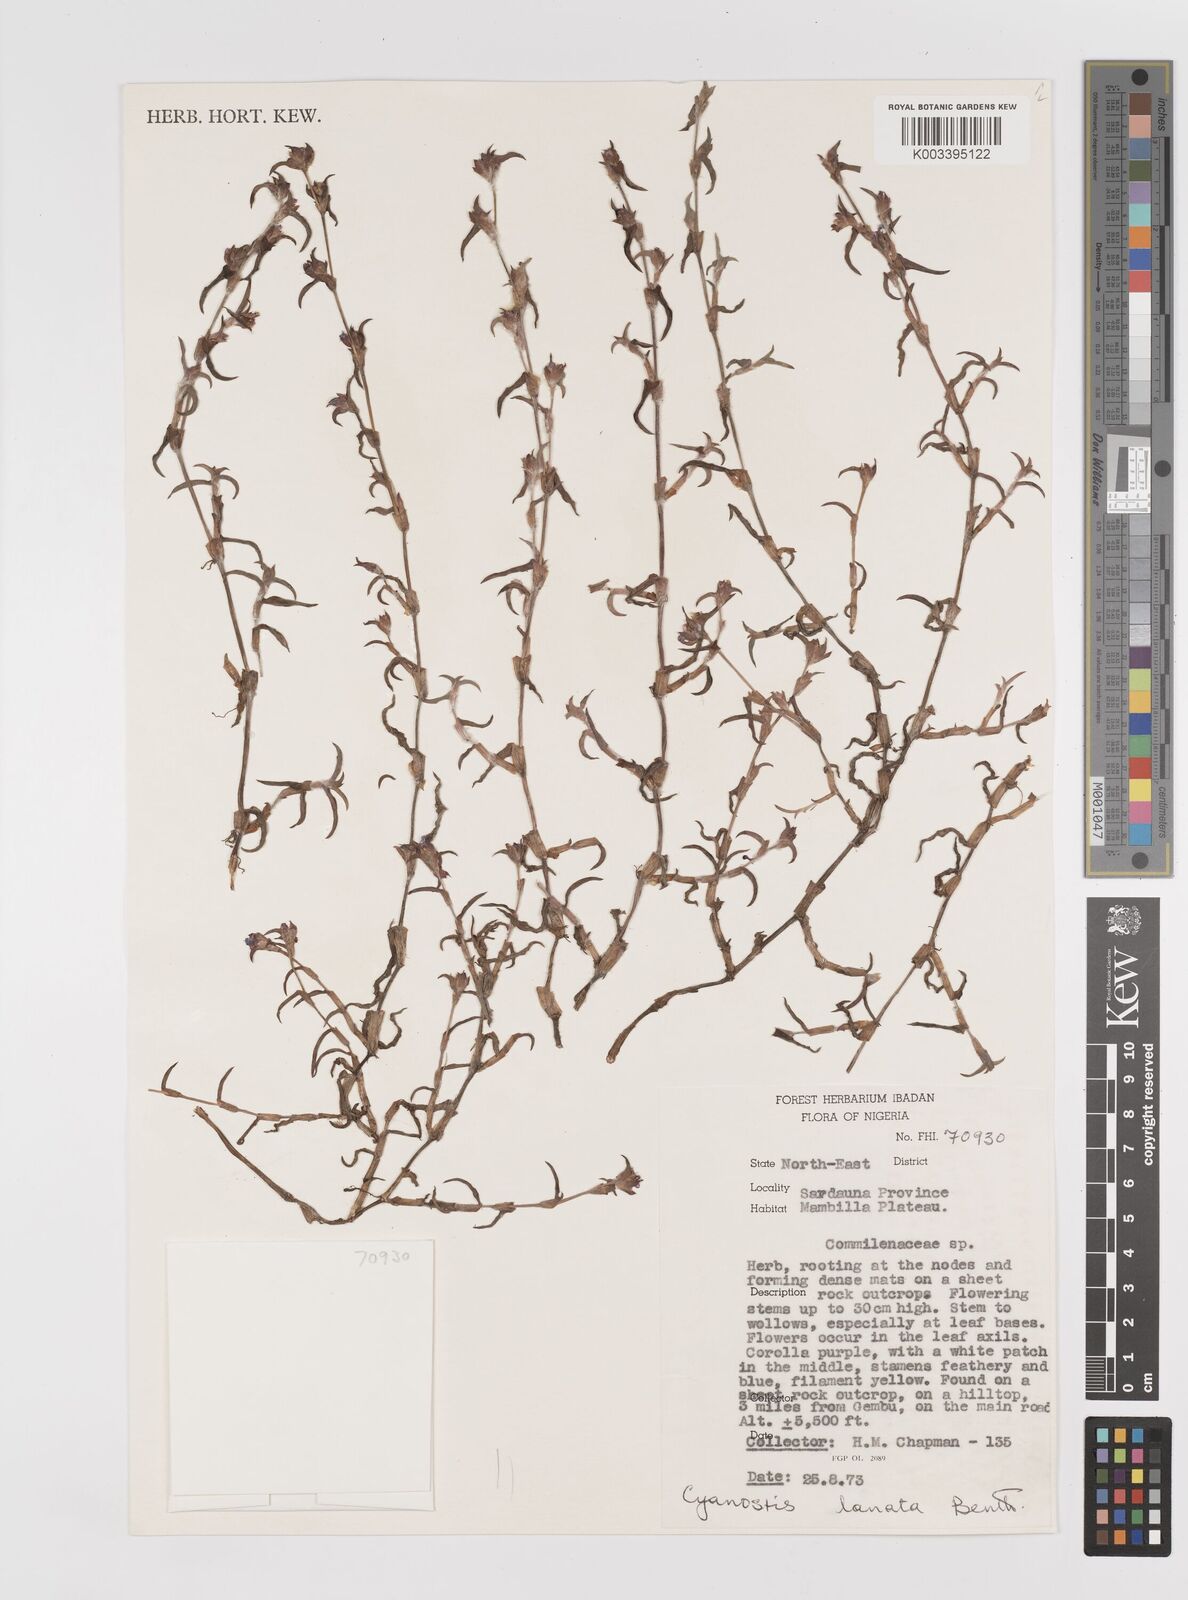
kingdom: Plantae
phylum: Tracheophyta
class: Liliopsida
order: Commelinales
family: Commelinaceae
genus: Cyanotis
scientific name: Cyanotis lanata
